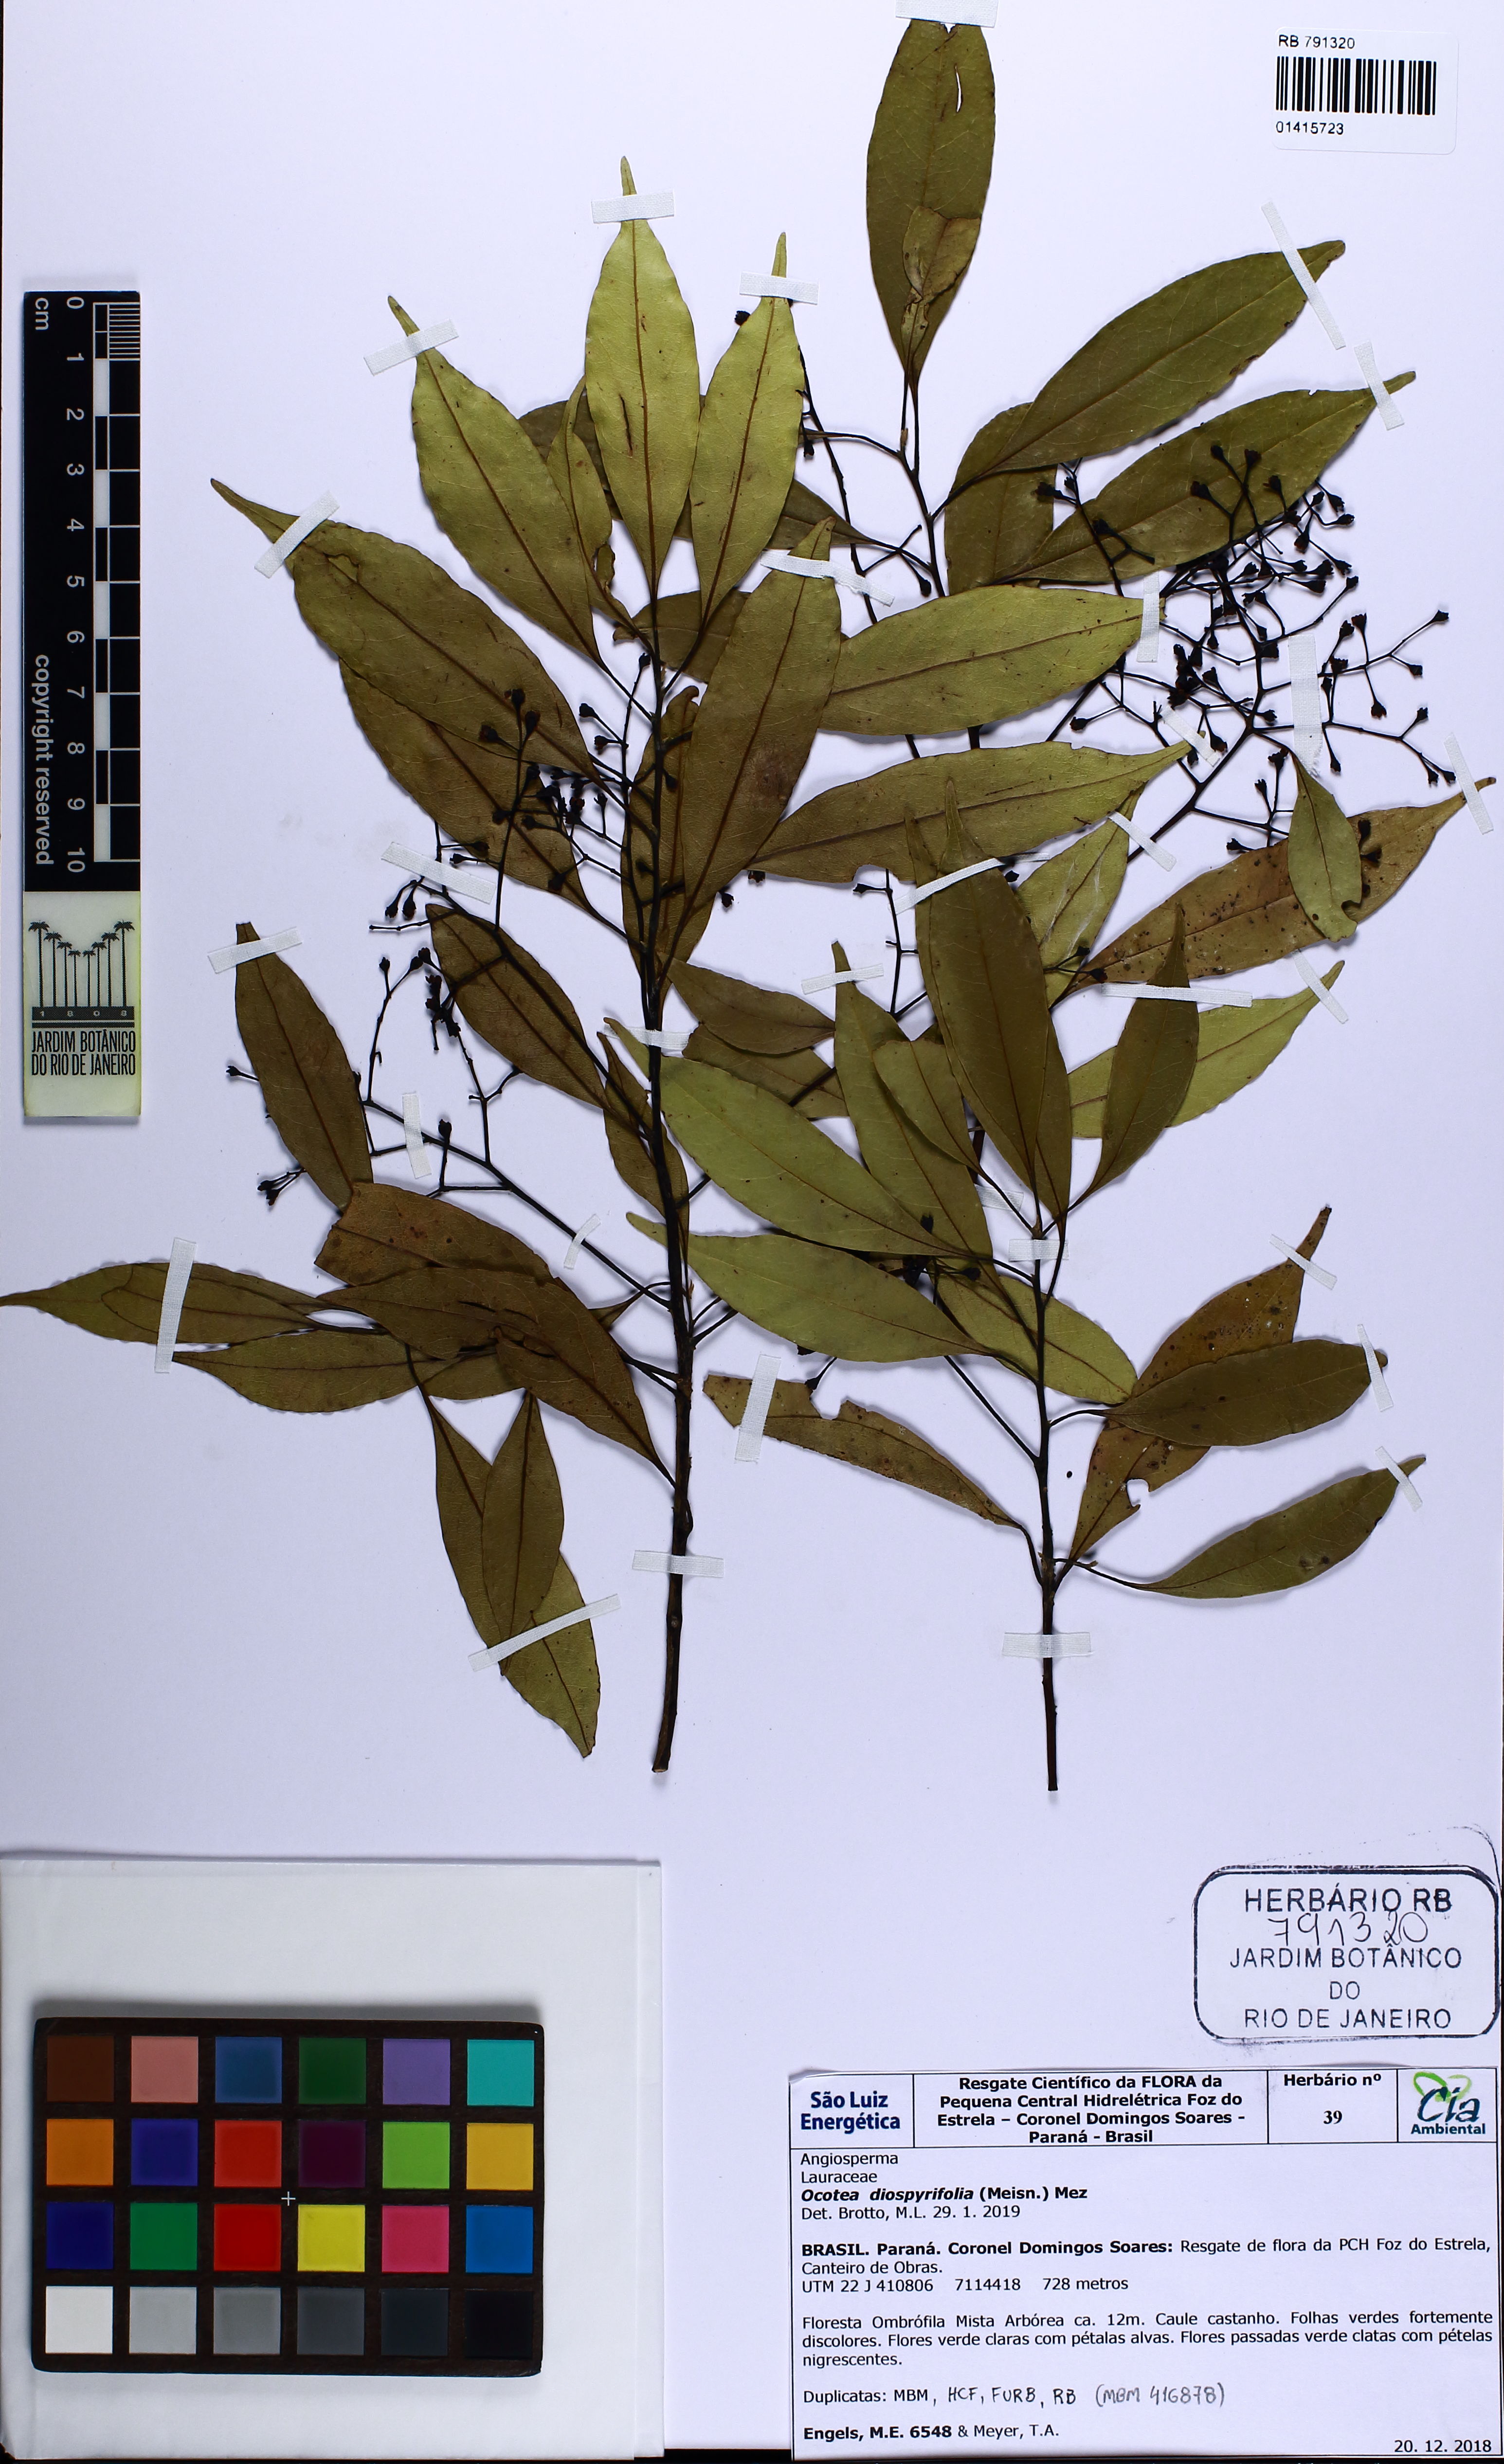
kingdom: Plantae
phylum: Tracheophyta
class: Magnoliopsida
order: Laurales
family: Lauraceae
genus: Ocotea
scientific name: Ocotea diospyrifolia
